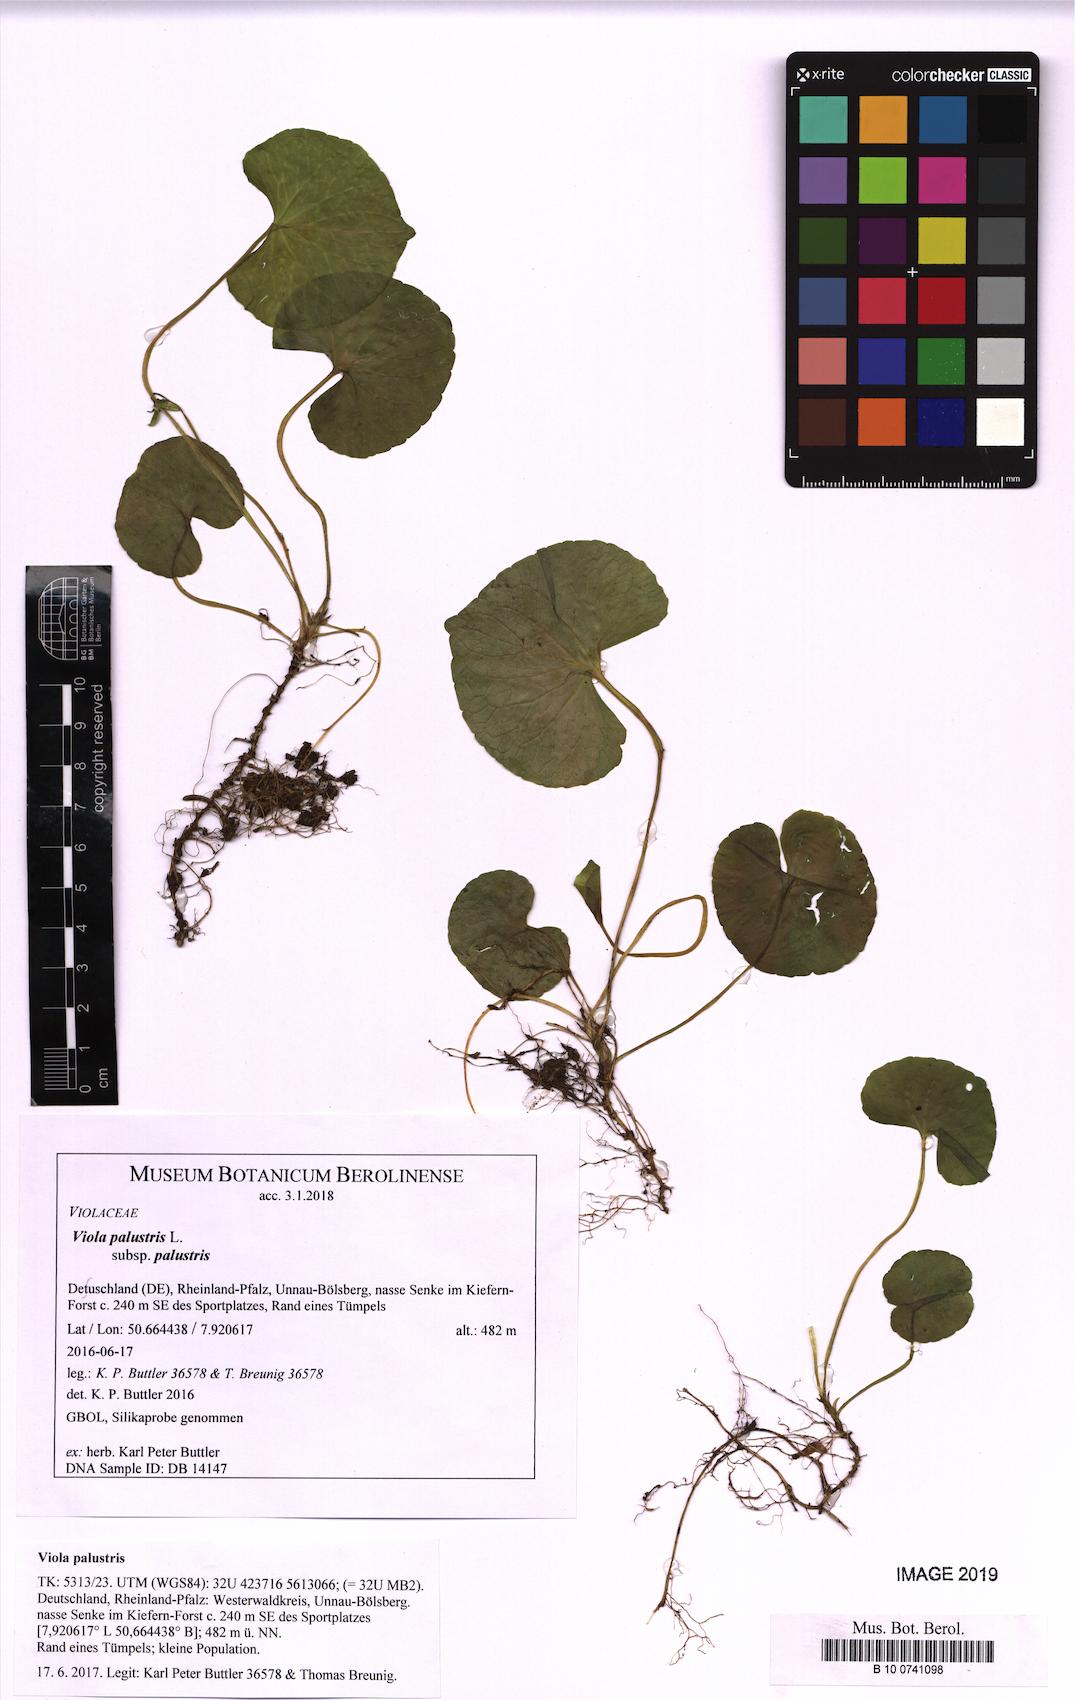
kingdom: Plantae
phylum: Tracheophyta
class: Magnoliopsida
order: Malpighiales
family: Violaceae
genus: Viola
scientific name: Viola palustris
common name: Marsh violet
